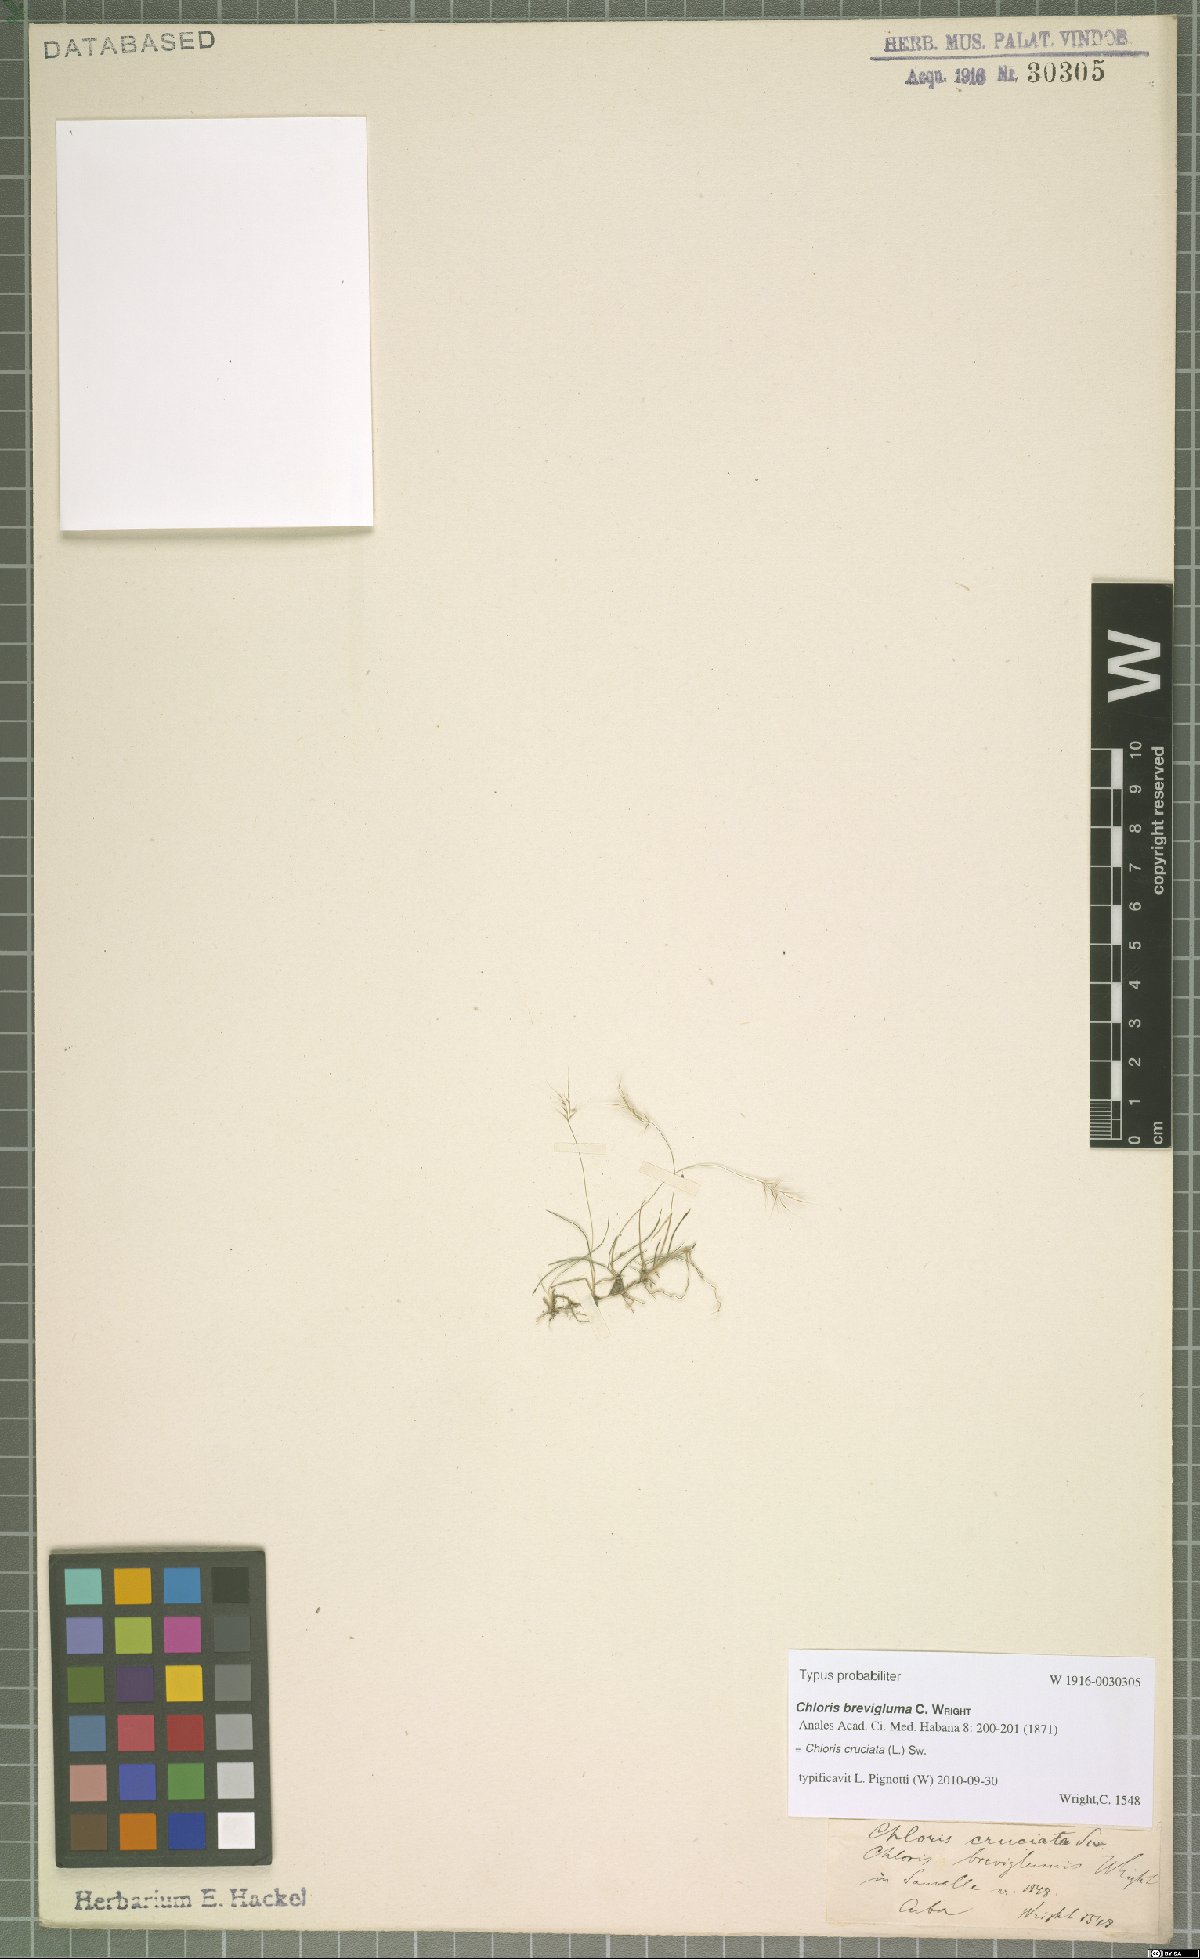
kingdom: Plantae
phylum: Tracheophyta
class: Liliopsida
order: Poales
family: Poaceae
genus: Chloris
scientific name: Chloris cruciata
